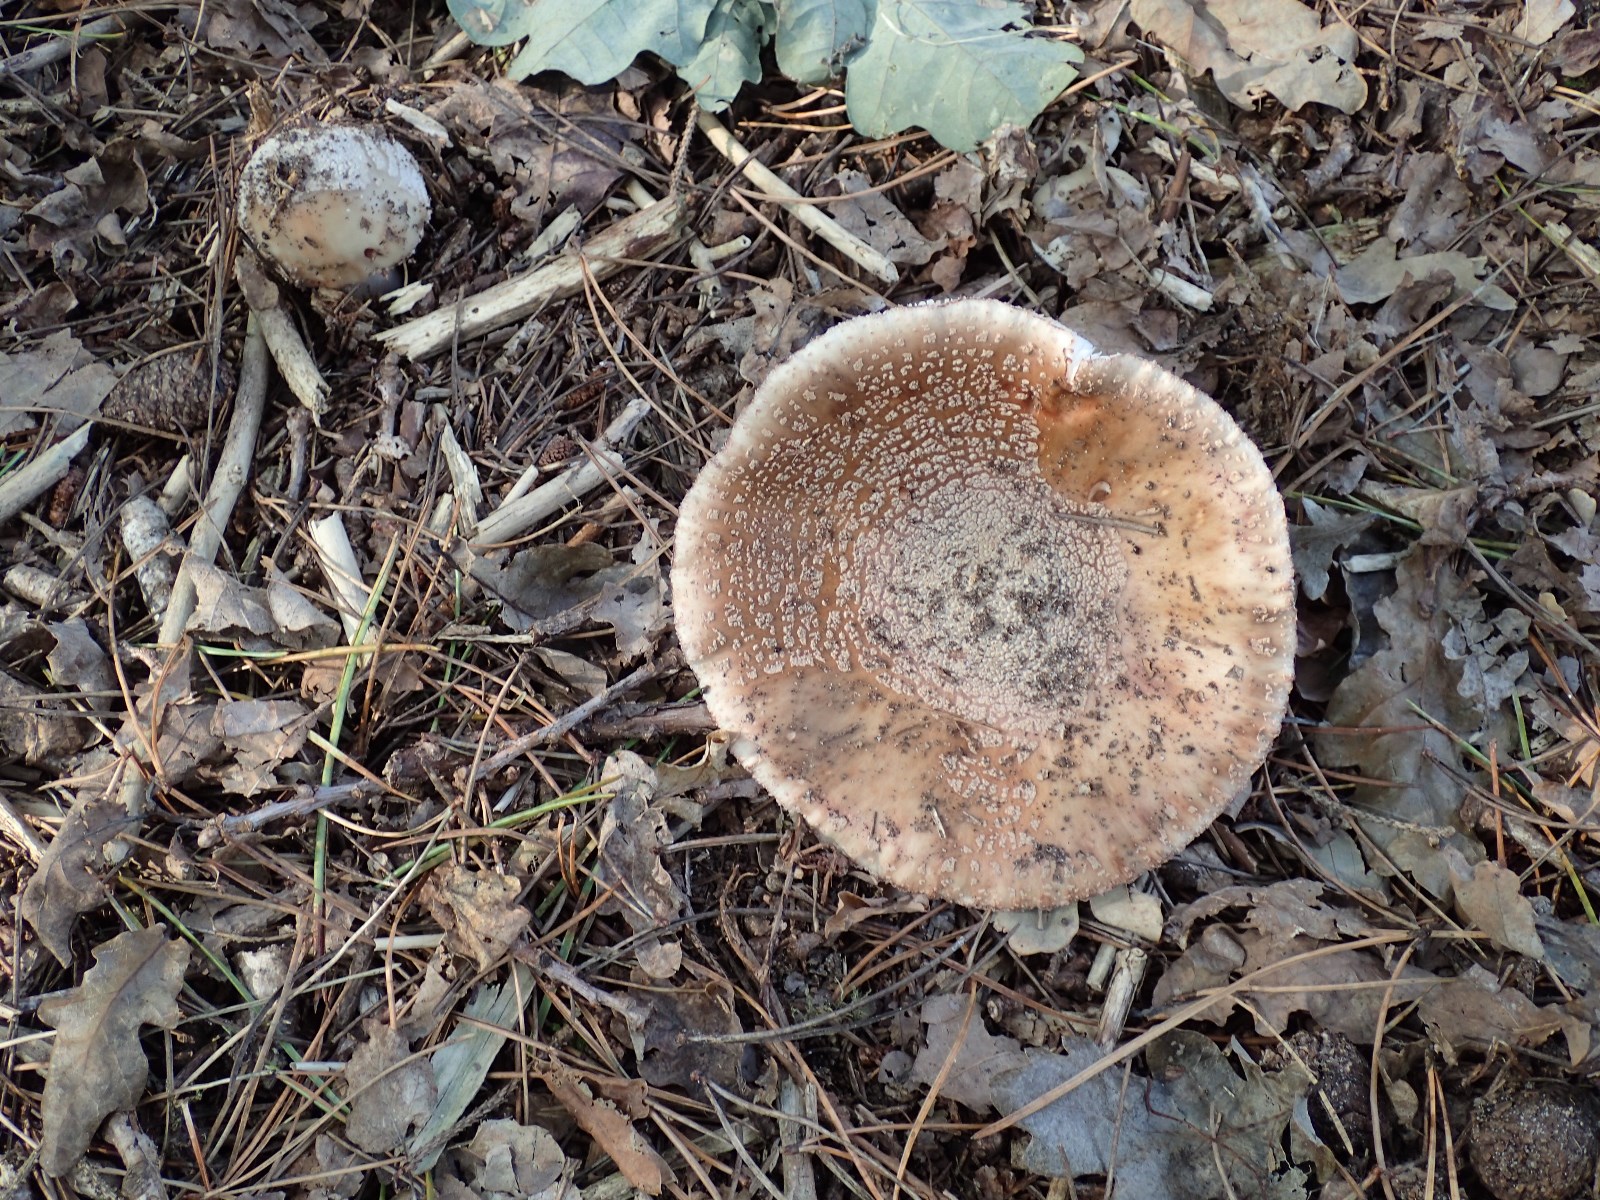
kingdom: Fungi
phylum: Basidiomycota
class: Agaricomycetes
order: Agaricales
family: Amanitaceae
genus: Amanita
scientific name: Amanita rubescens
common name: rødmende fluesvamp
